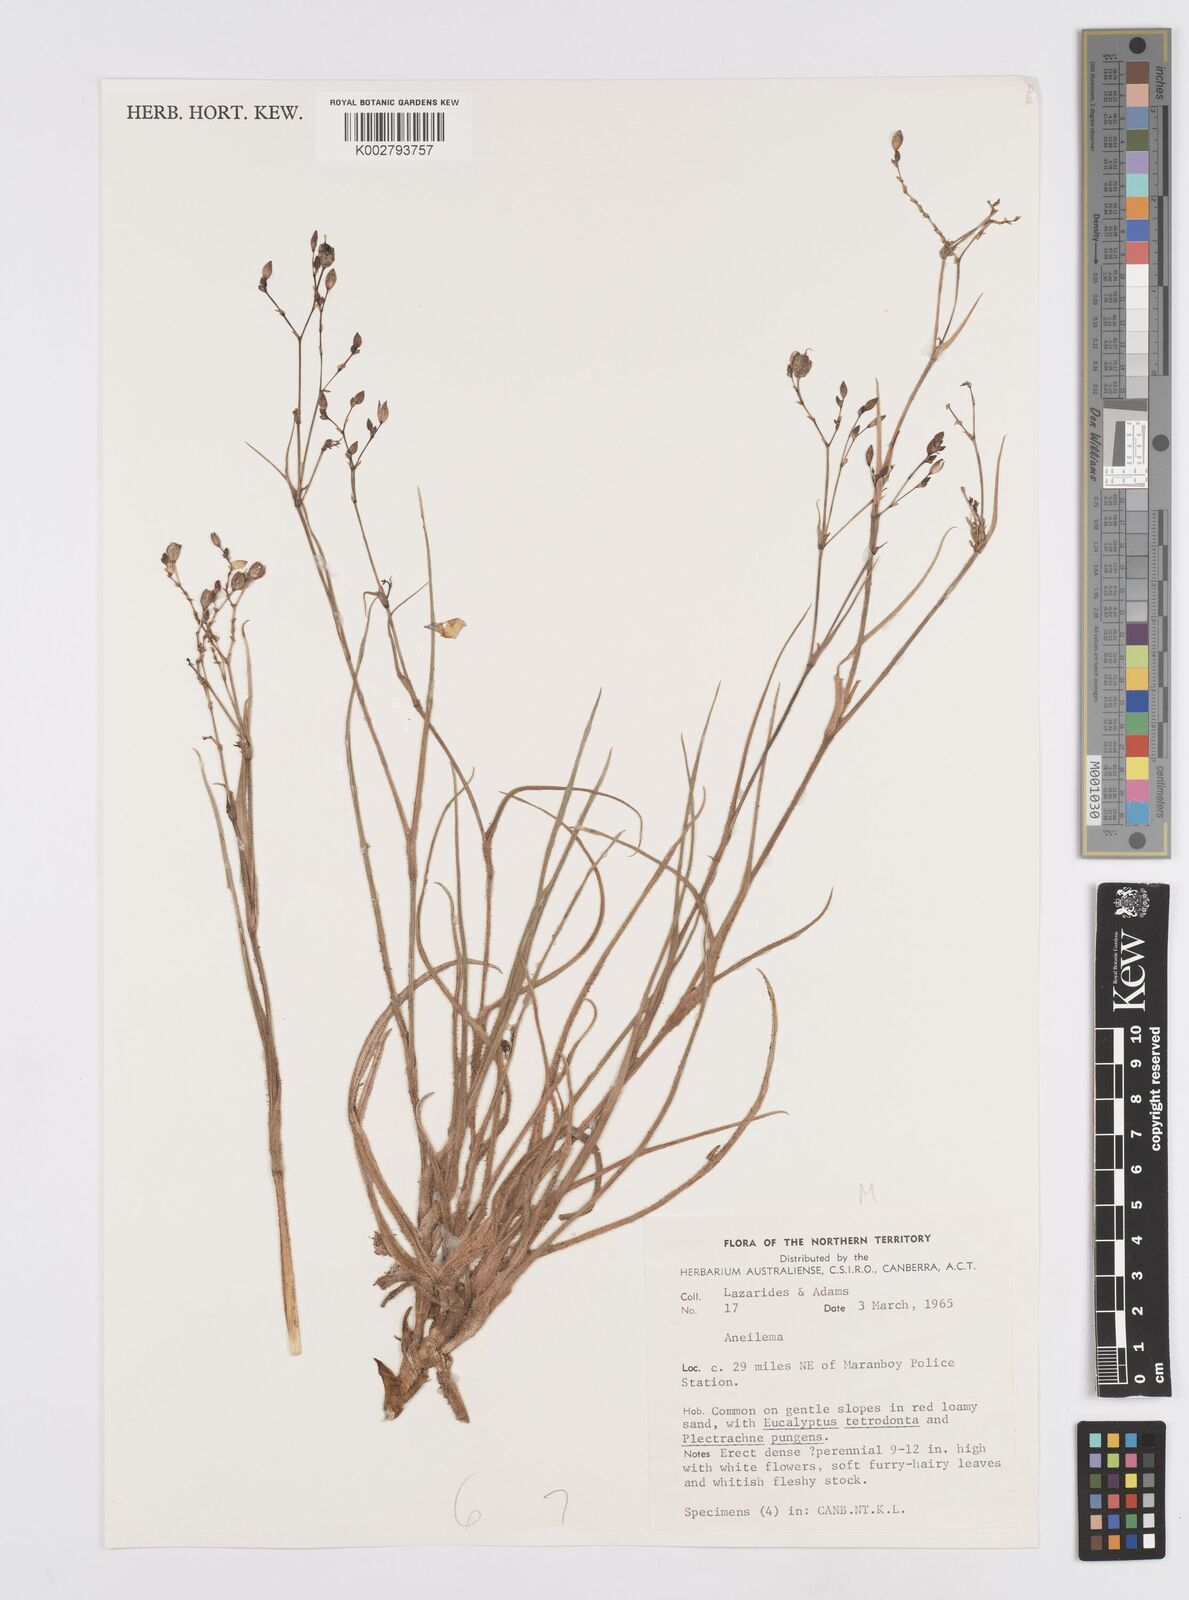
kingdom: Plantae
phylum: Tracheophyta
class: Liliopsida
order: Commelinales
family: Commelinaceae
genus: Murdannia
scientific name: Murdannia
